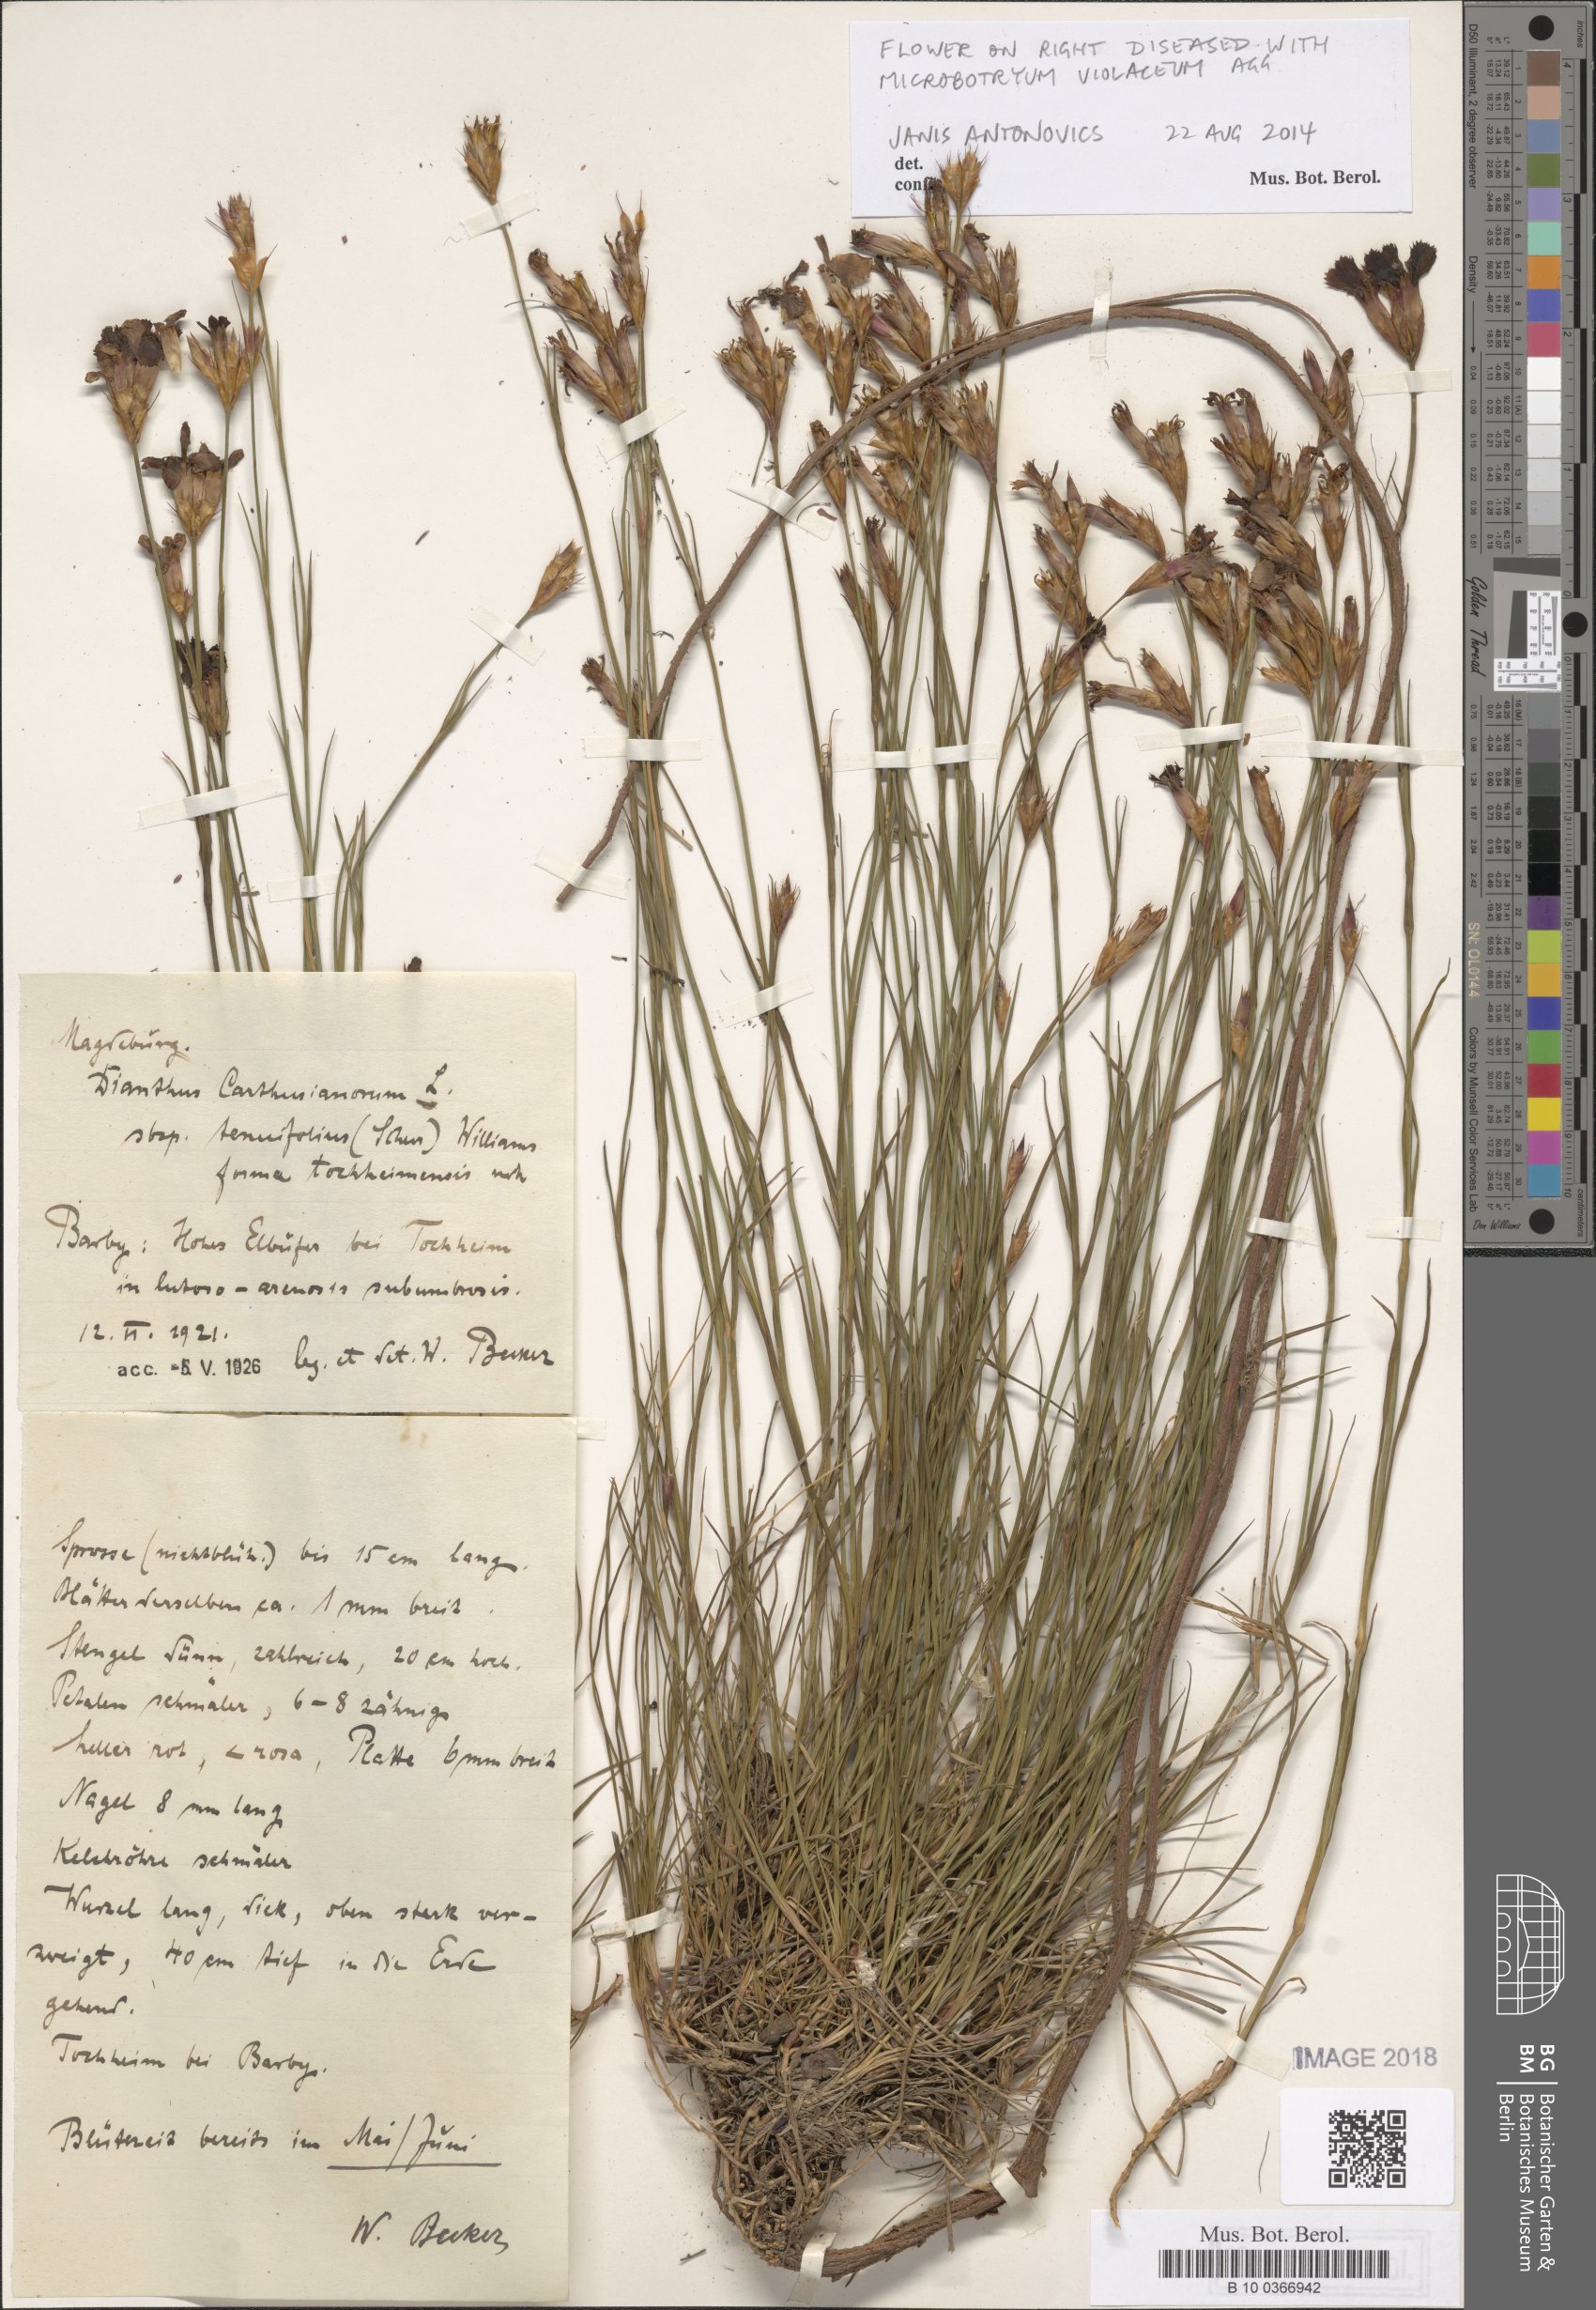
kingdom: Plantae
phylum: Tracheophyta
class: Magnoliopsida
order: Caryophyllales
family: Caryophyllaceae
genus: Dianthus
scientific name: Dianthus carthusianorum
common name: Carthusian pink
